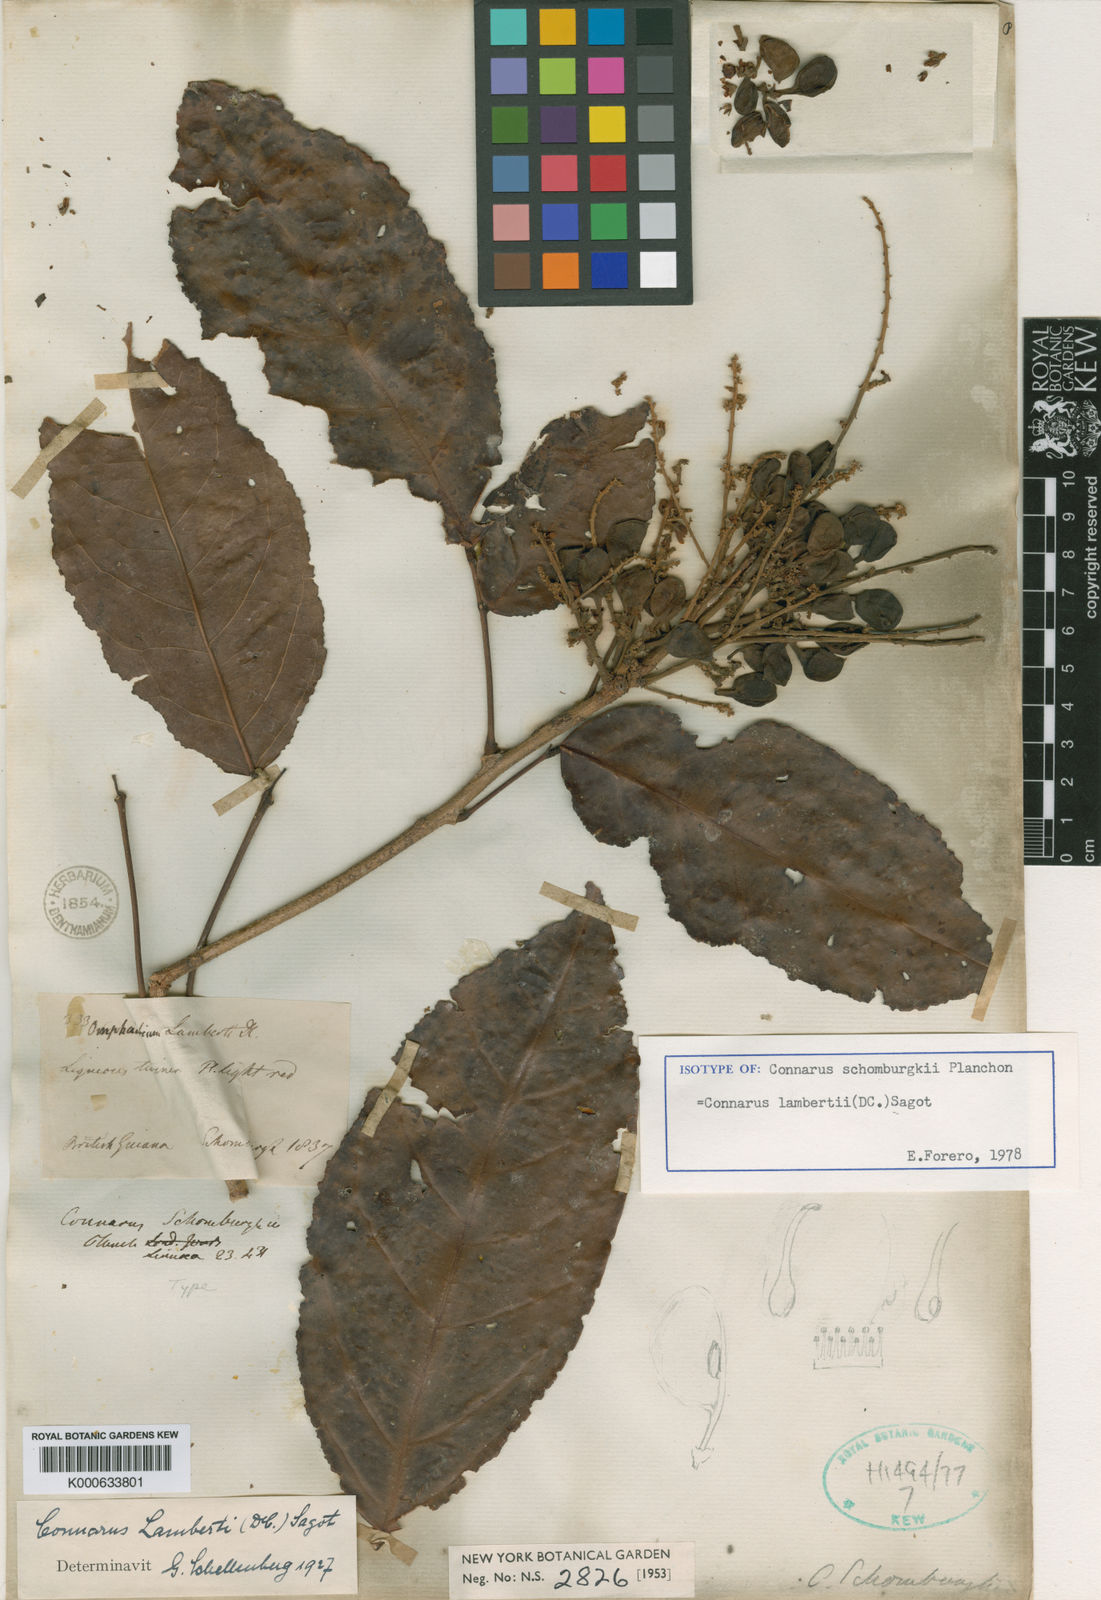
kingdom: Plantae
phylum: Tracheophyta
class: Magnoliopsida
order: Oxalidales
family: Connaraceae
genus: Connarus
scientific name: Connarus
